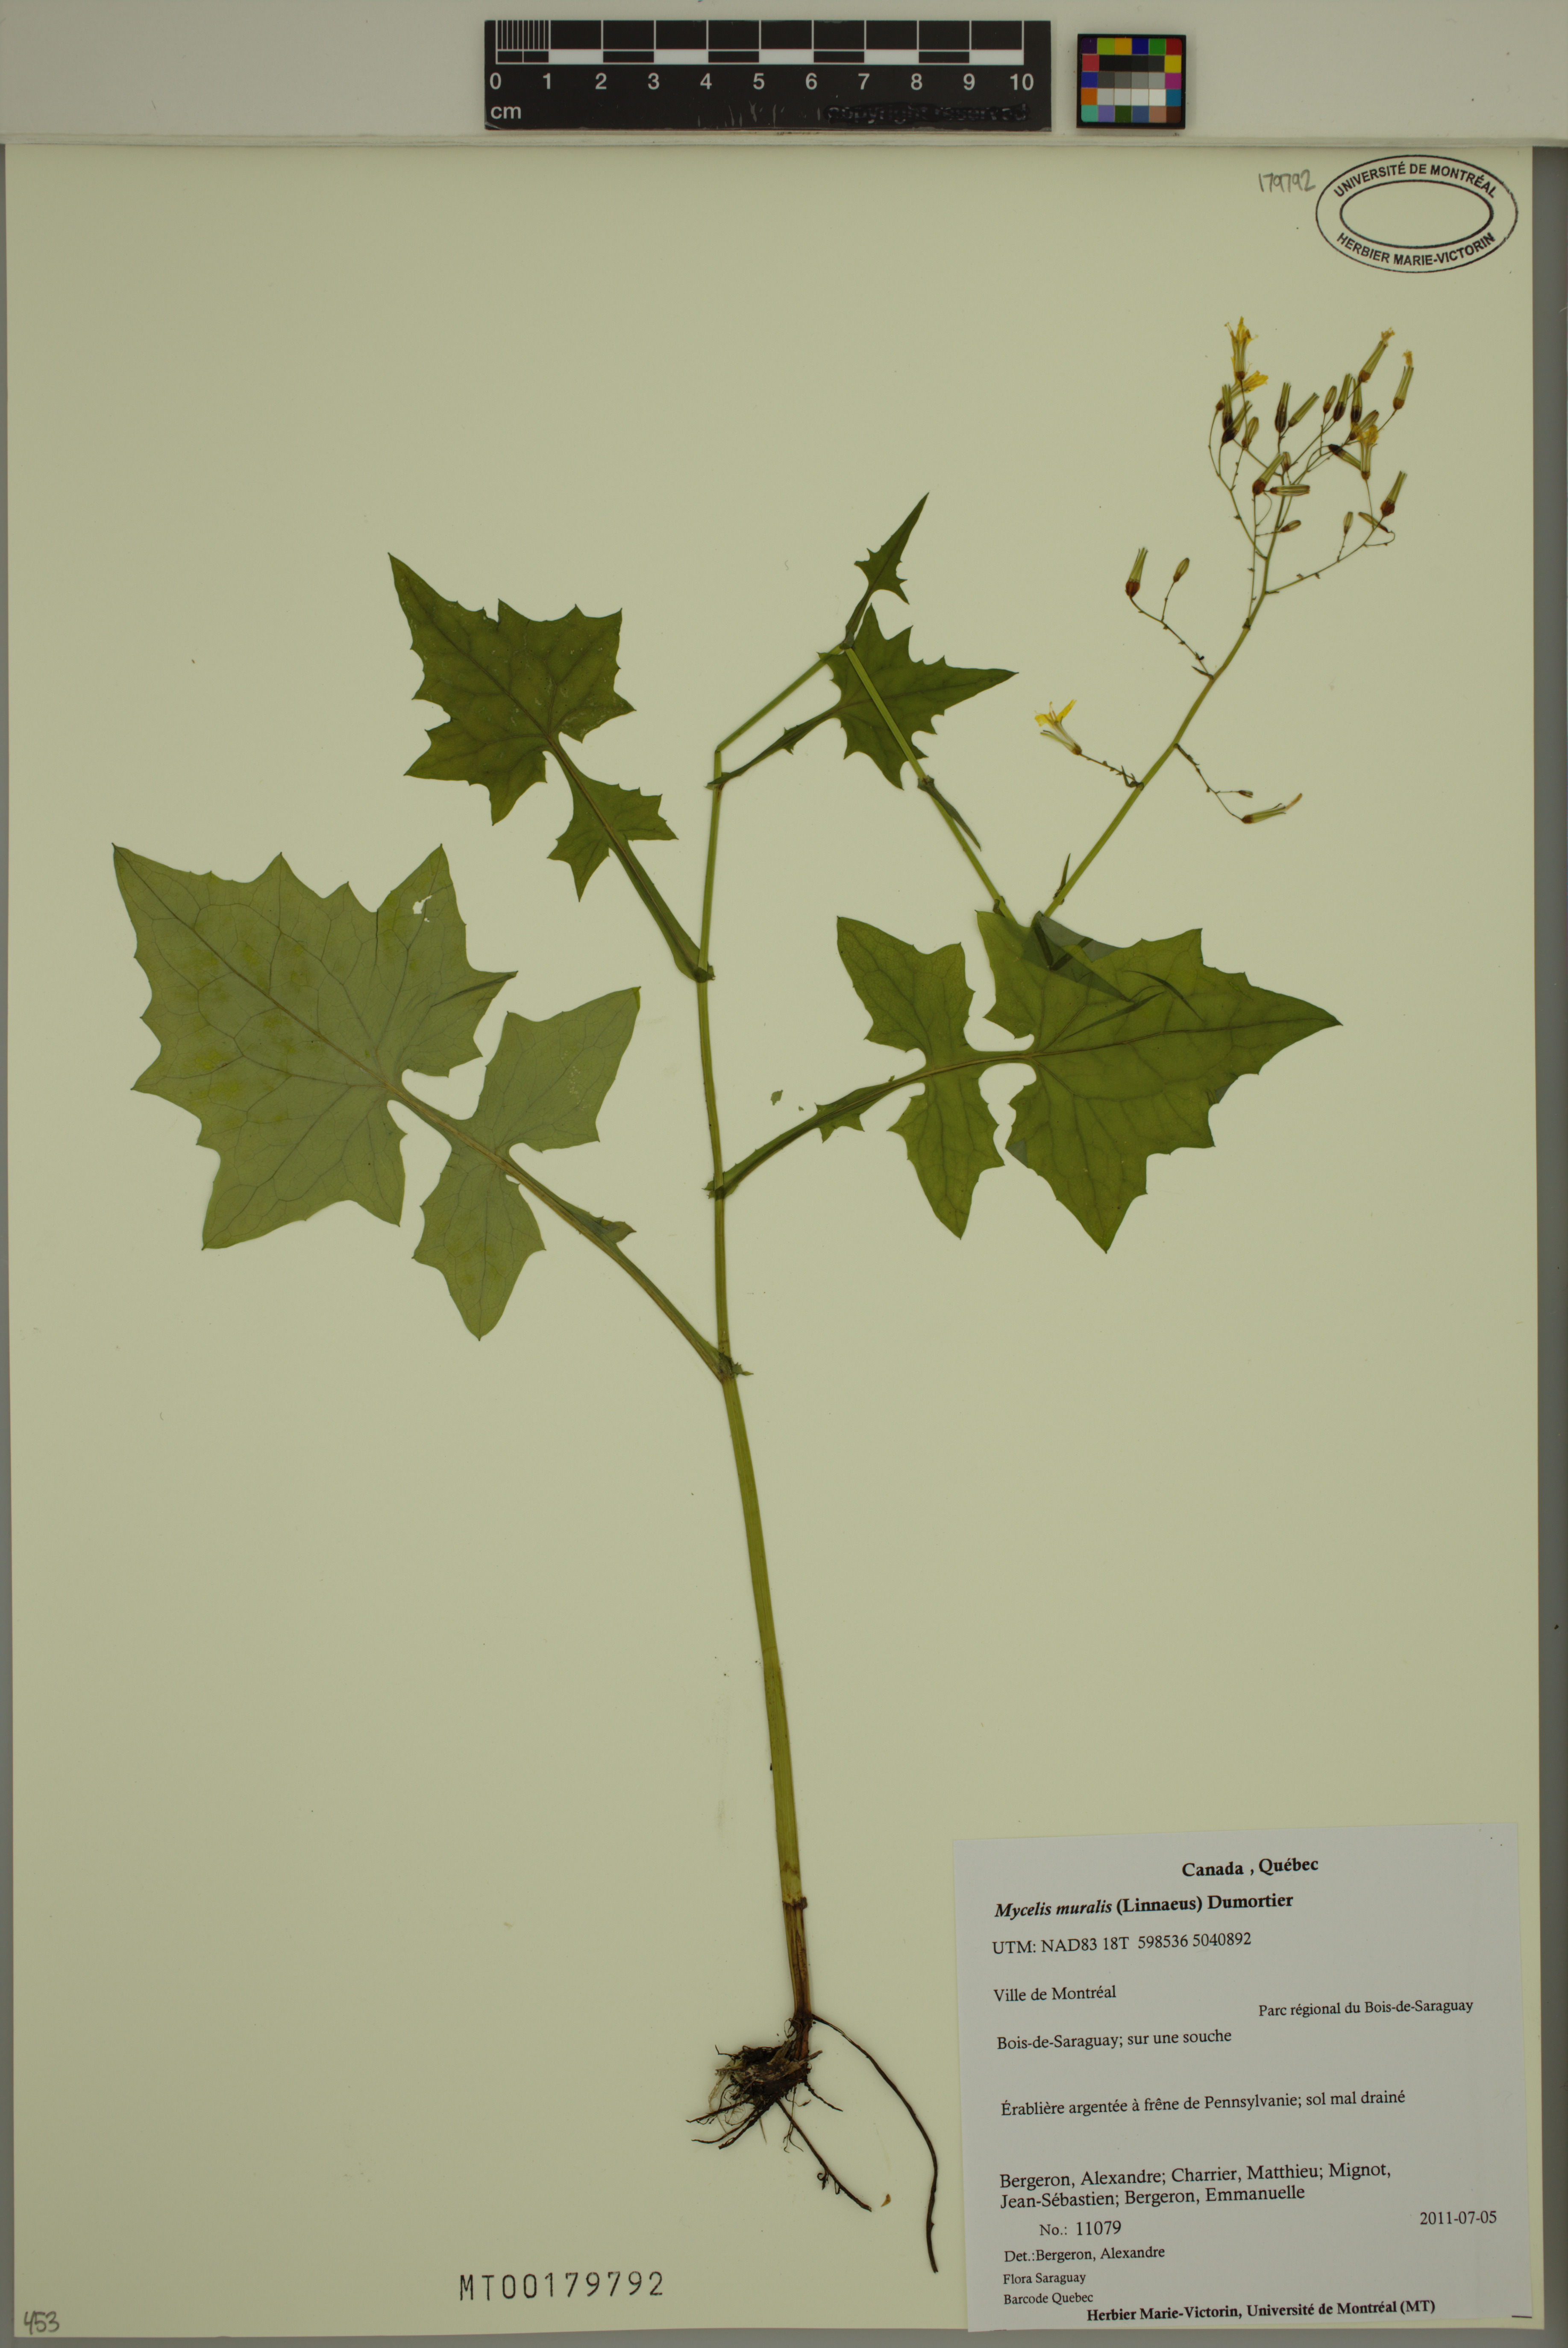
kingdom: Plantae
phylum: Tracheophyta
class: Magnoliopsida
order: Asterales
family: Asteraceae
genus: Mycelis
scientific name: Mycelis muralis
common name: Wall lettuce
